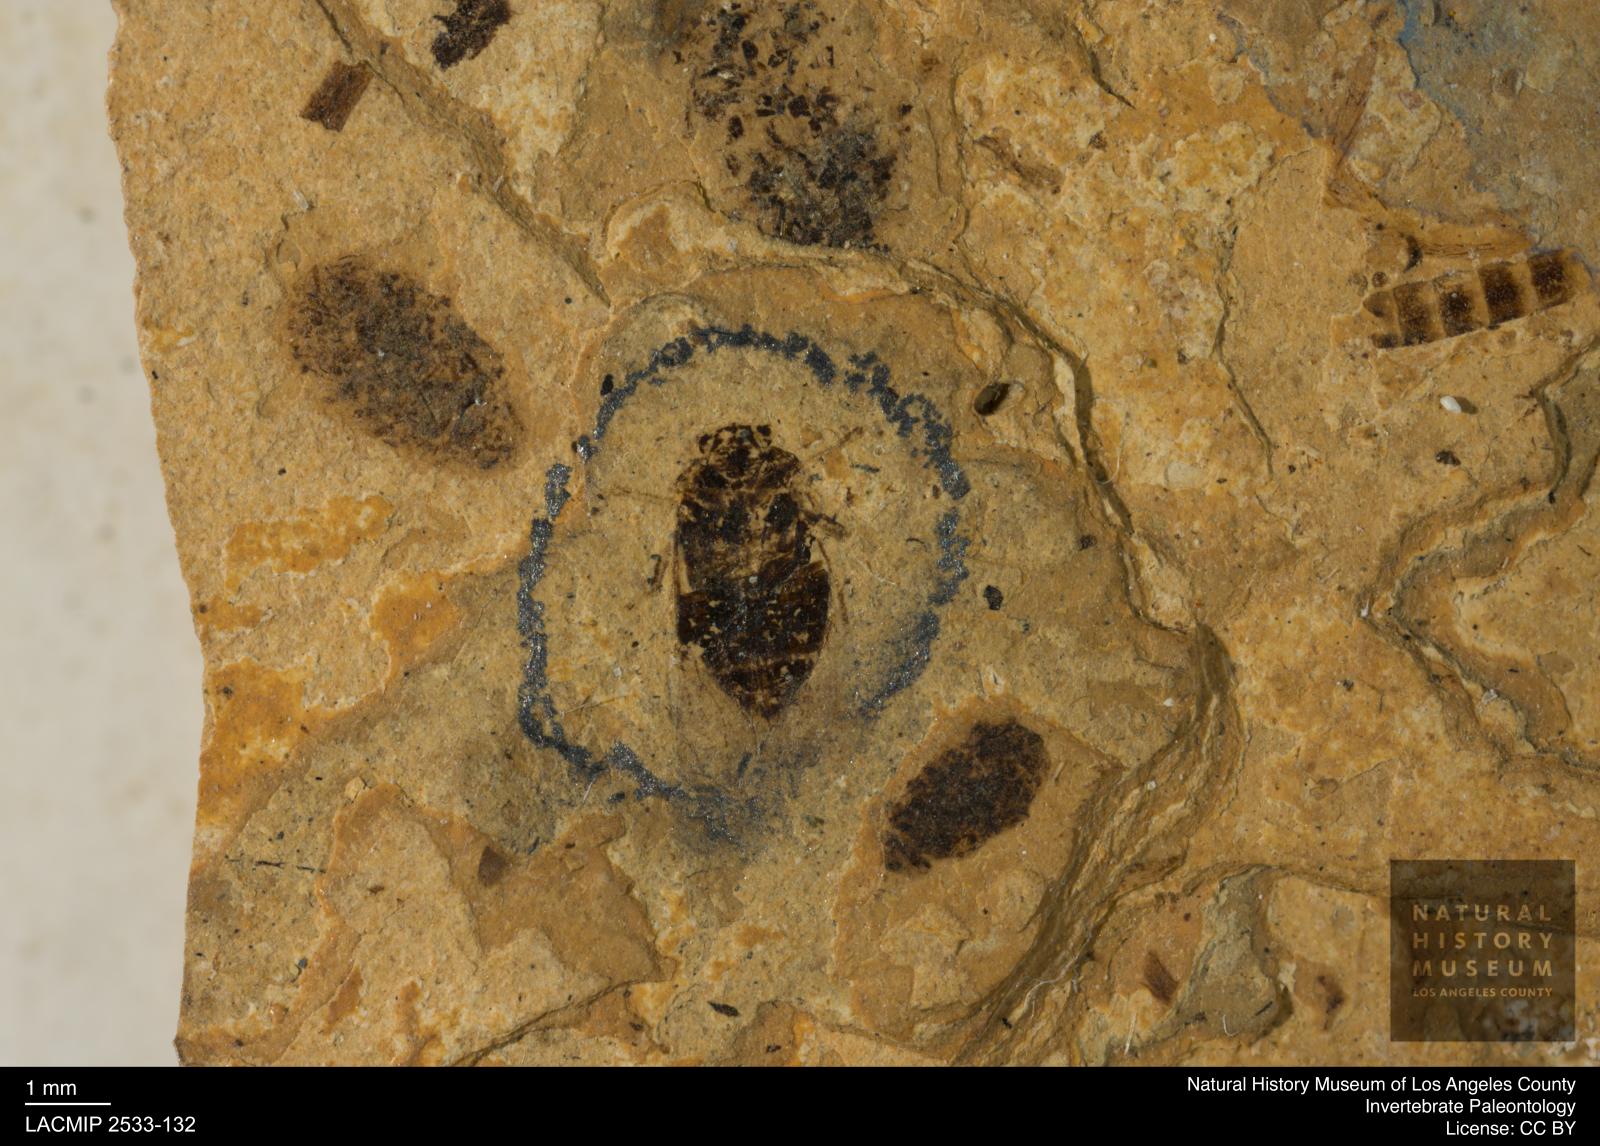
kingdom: Animalia
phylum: Arthropoda
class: Insecta
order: Hemiptera
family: Aetalionidae
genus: Aetalion
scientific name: Aetalion oligocaenicum
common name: Plant hopper
